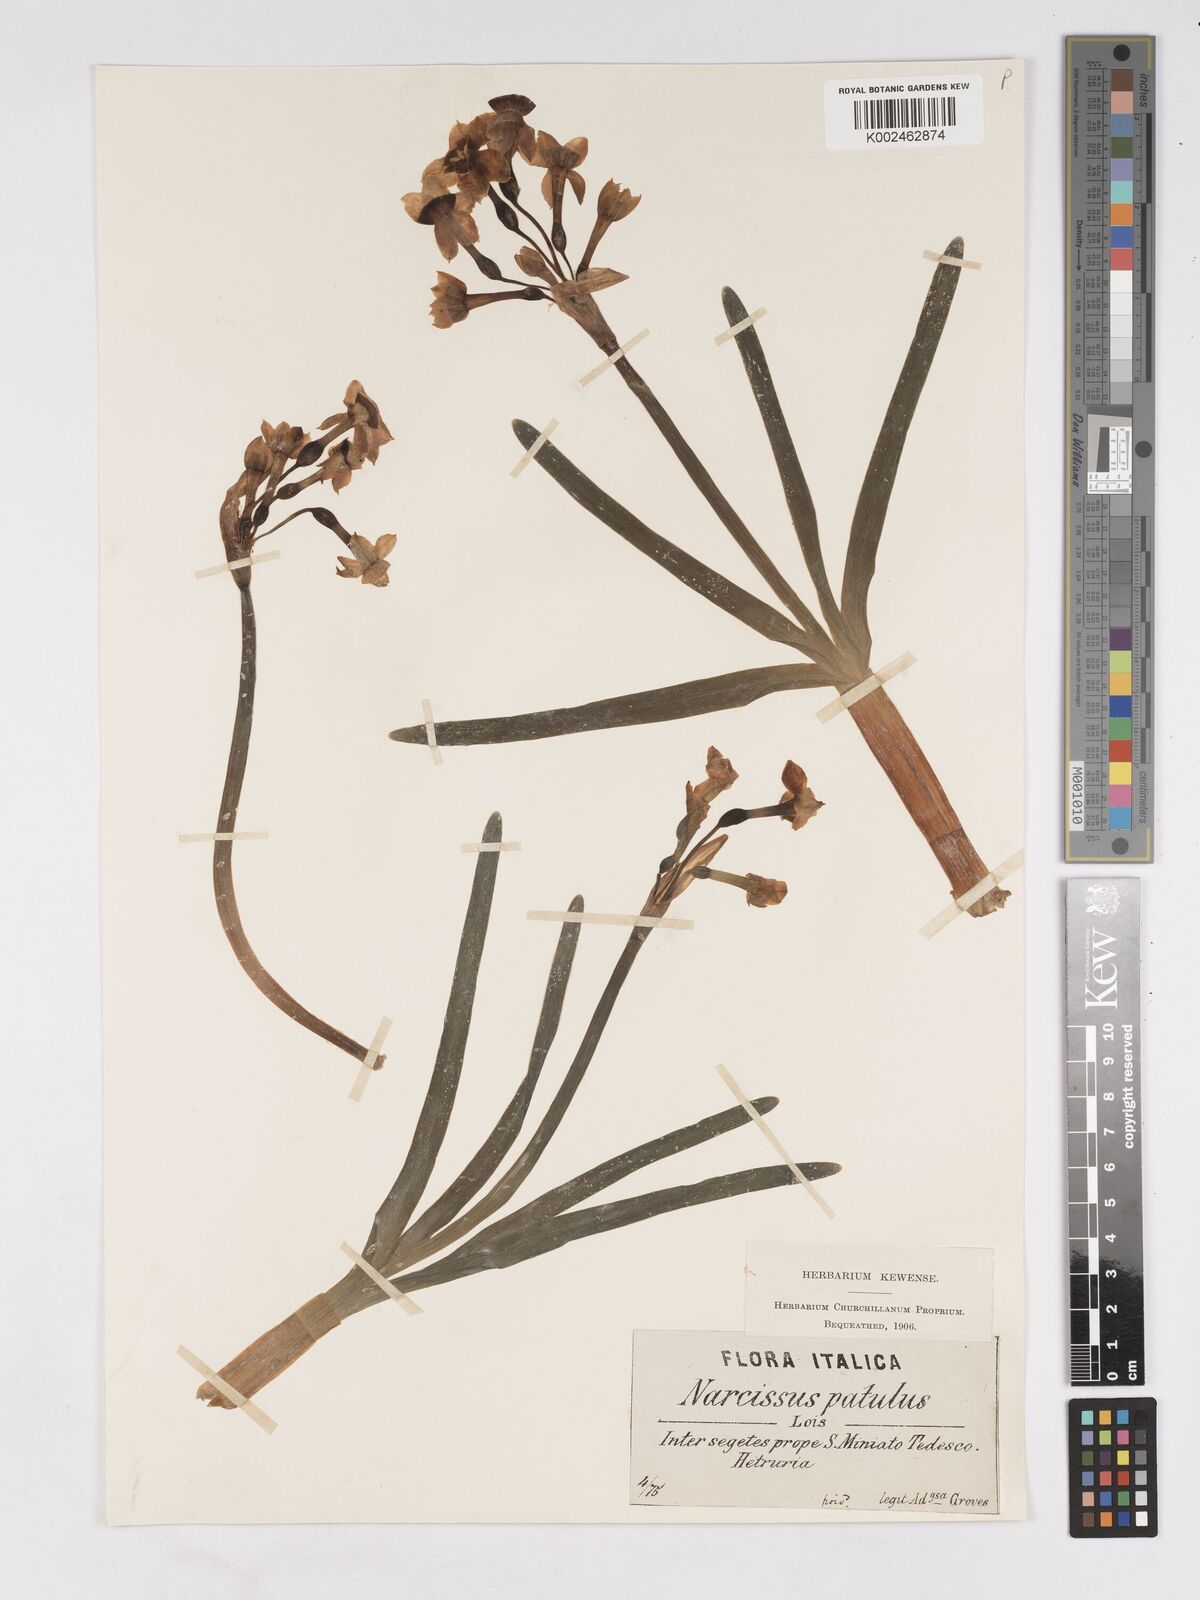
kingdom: Plantae
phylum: Tracheophyta
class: Liliopsida
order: Asparagales
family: Amaryllidaceae
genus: Narcissus
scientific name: Narcissus tazetta
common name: Bunch-flowered daffodil
